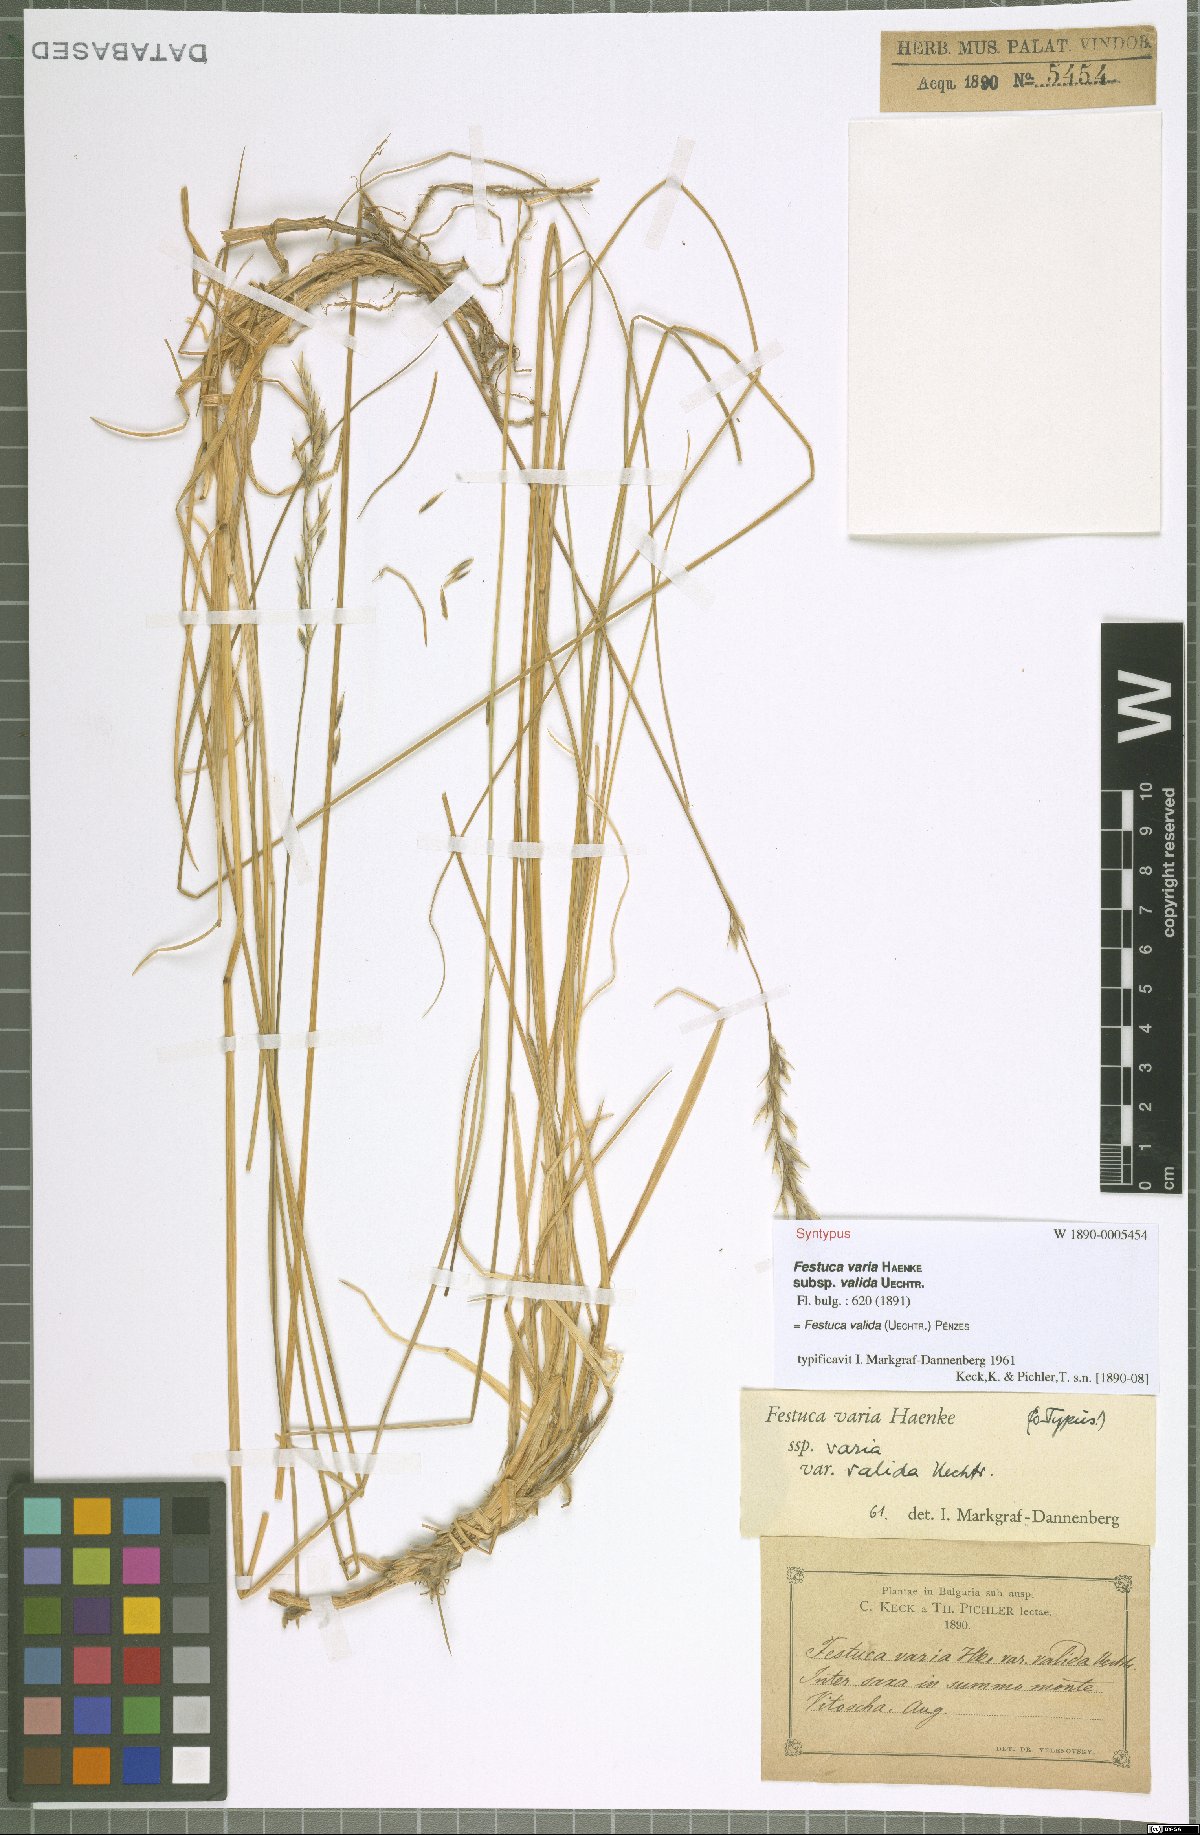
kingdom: Plantae
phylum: Tracheophyta
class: Liliopsida
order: Poales
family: Poaceae
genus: Festuca
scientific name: Festuca valida
